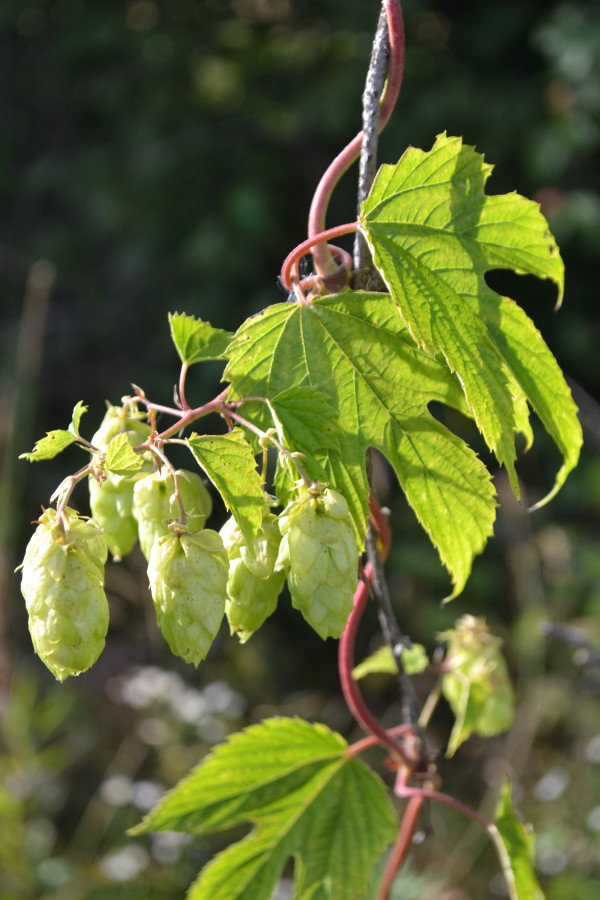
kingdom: Plantae
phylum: Tracheophyta
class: Magnoliopsida
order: Rosales
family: Cannabaceae
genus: Humulus
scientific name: Humulus lupulus
